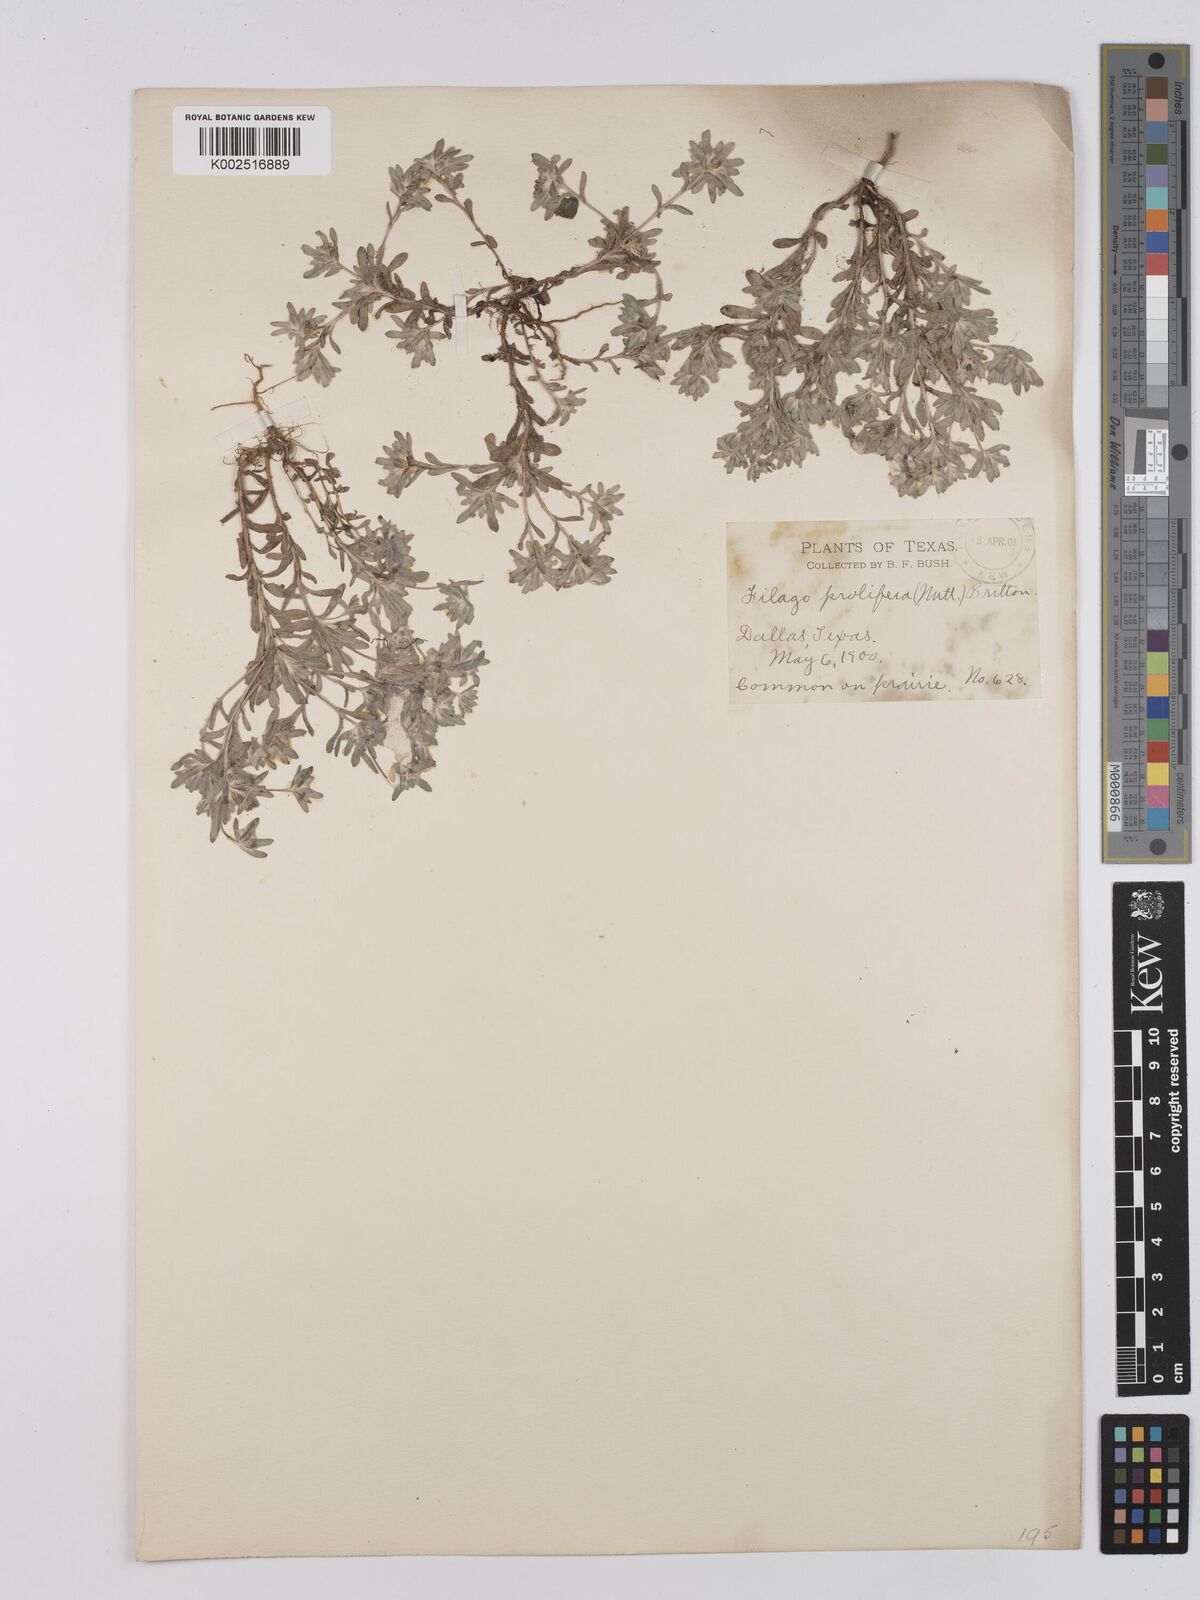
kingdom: Plantae
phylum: Tracheophyta
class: Magnoliopsida
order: Asterales
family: Asteraceae
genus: Diaperia
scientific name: Diaperia prolifera
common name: Big-head rabbit-tobacco
